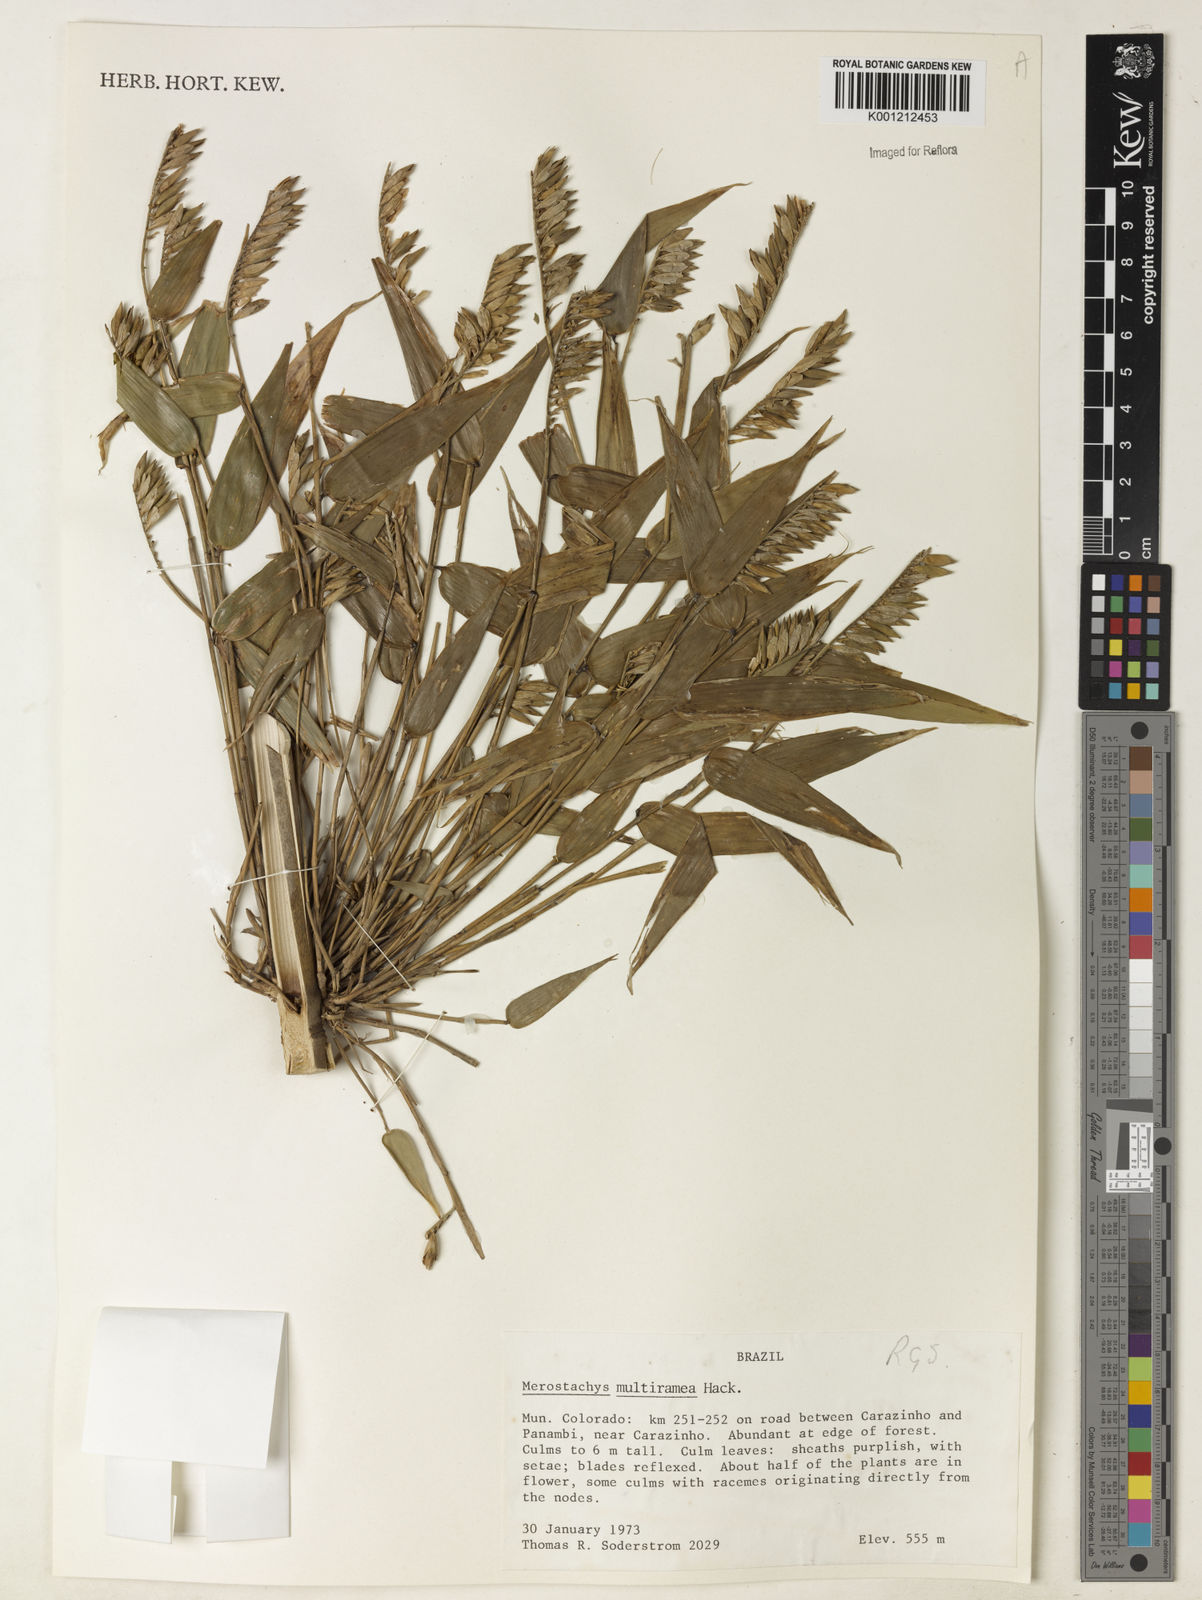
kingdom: Plantae
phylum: Tracheophyta
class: Liliopsida
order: Poales
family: Poaceae
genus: Merostachys
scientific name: Merostachys multiramea
